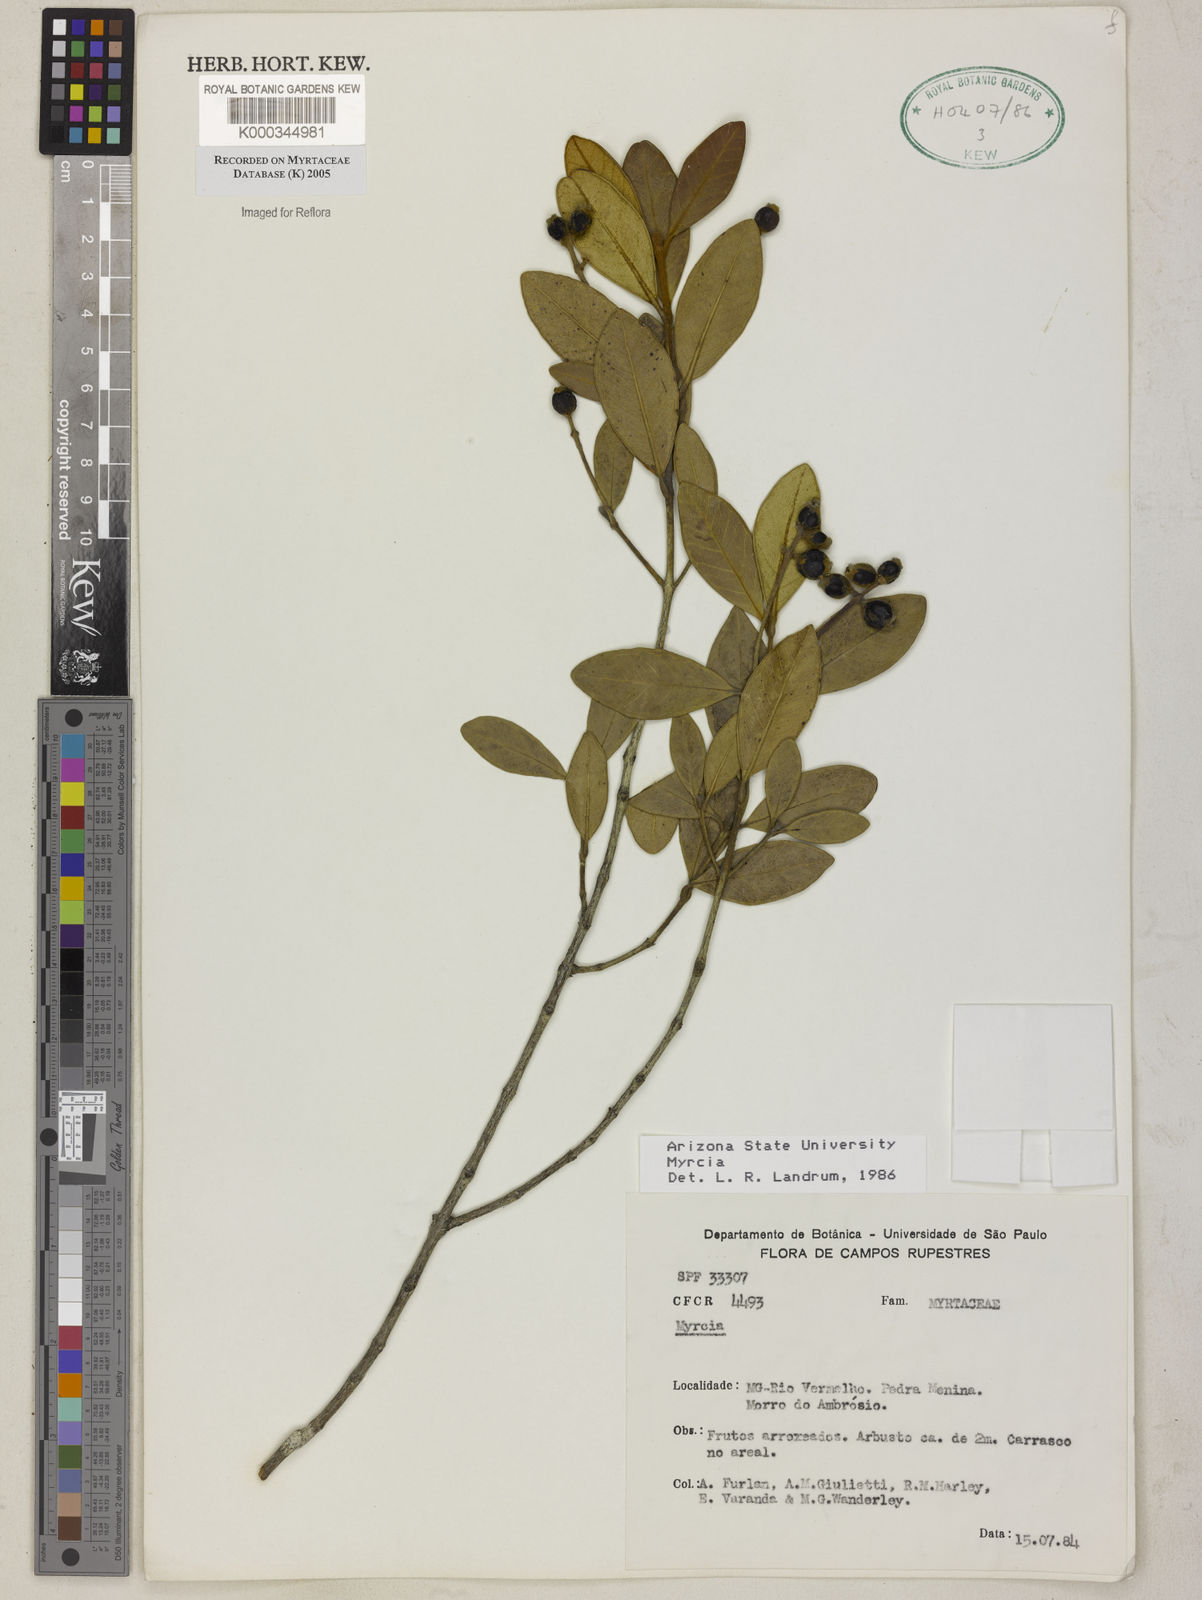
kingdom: Plantae
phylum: Tracheophyta
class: Magnoliopsida
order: Myrtales
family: Myrtaceae
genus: Myrcia
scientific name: Myrcia
